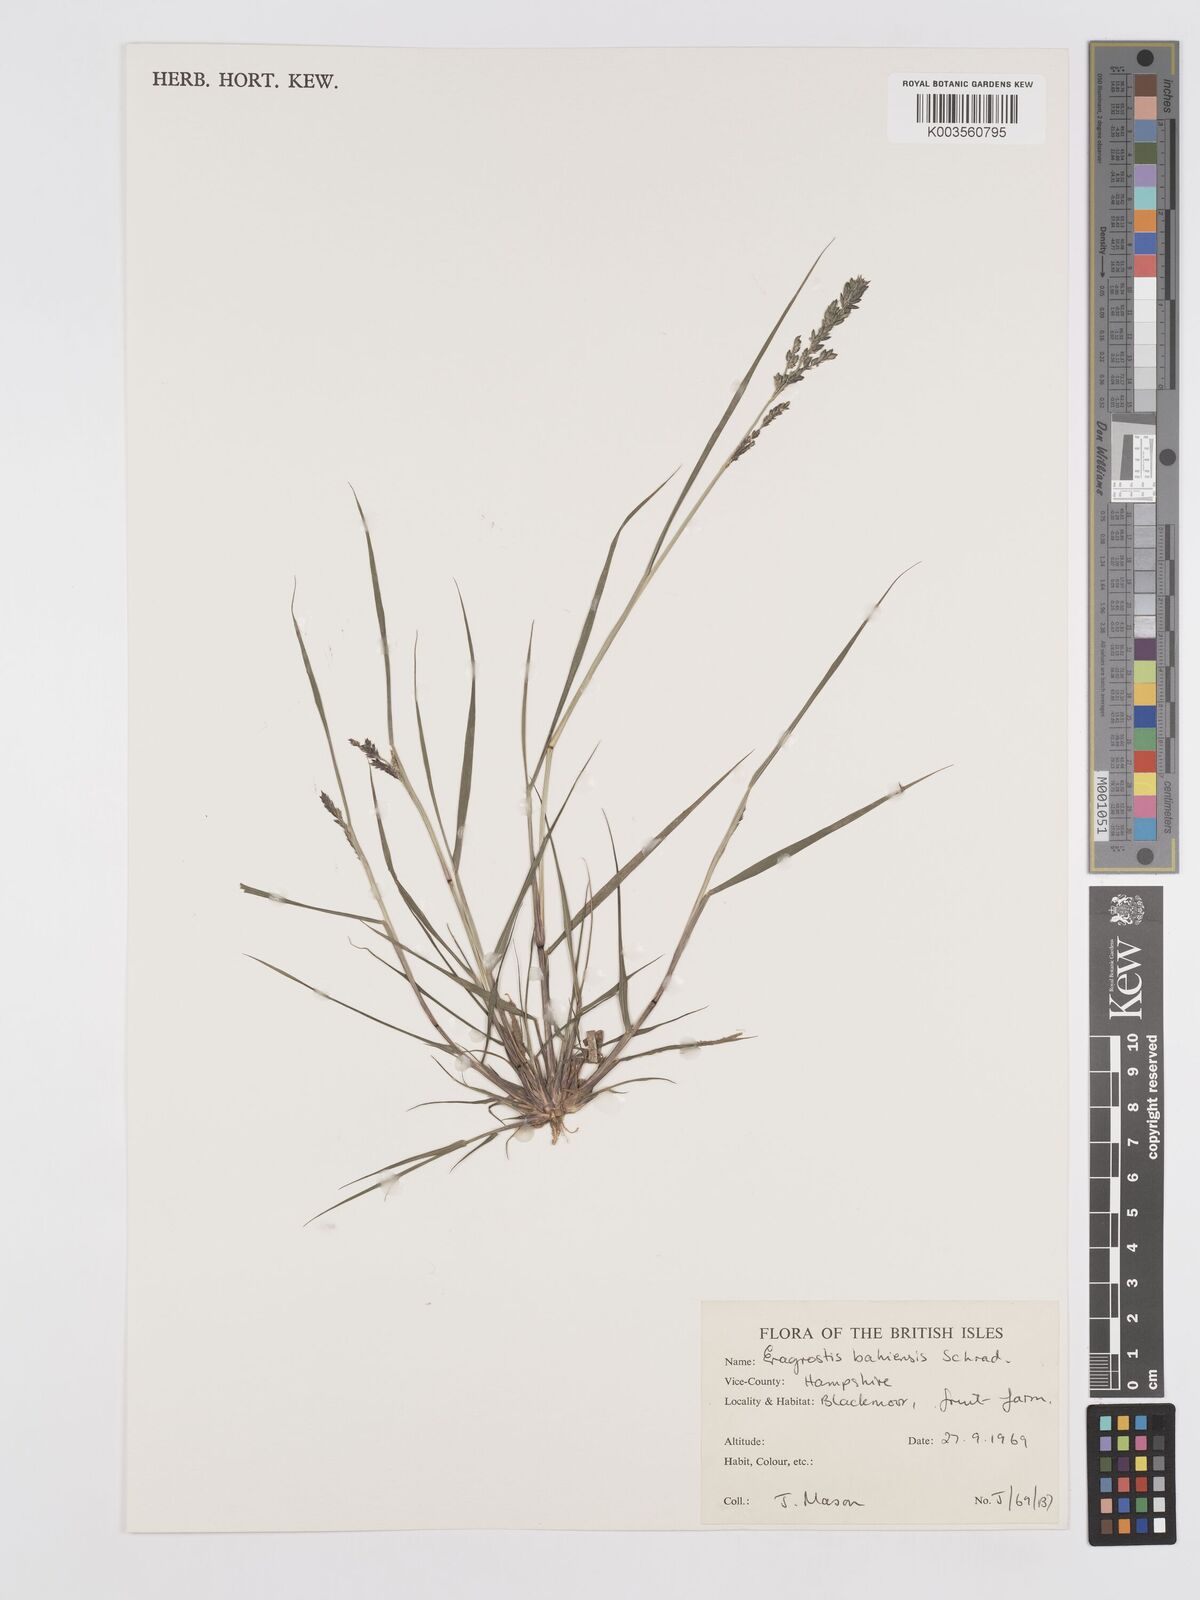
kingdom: Plantae
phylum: Tracheophyta
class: Liliopsida
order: Poales
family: Poaceae
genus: Eragrostis
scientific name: Eragrostis bahiensis
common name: Bahia lovegrass
